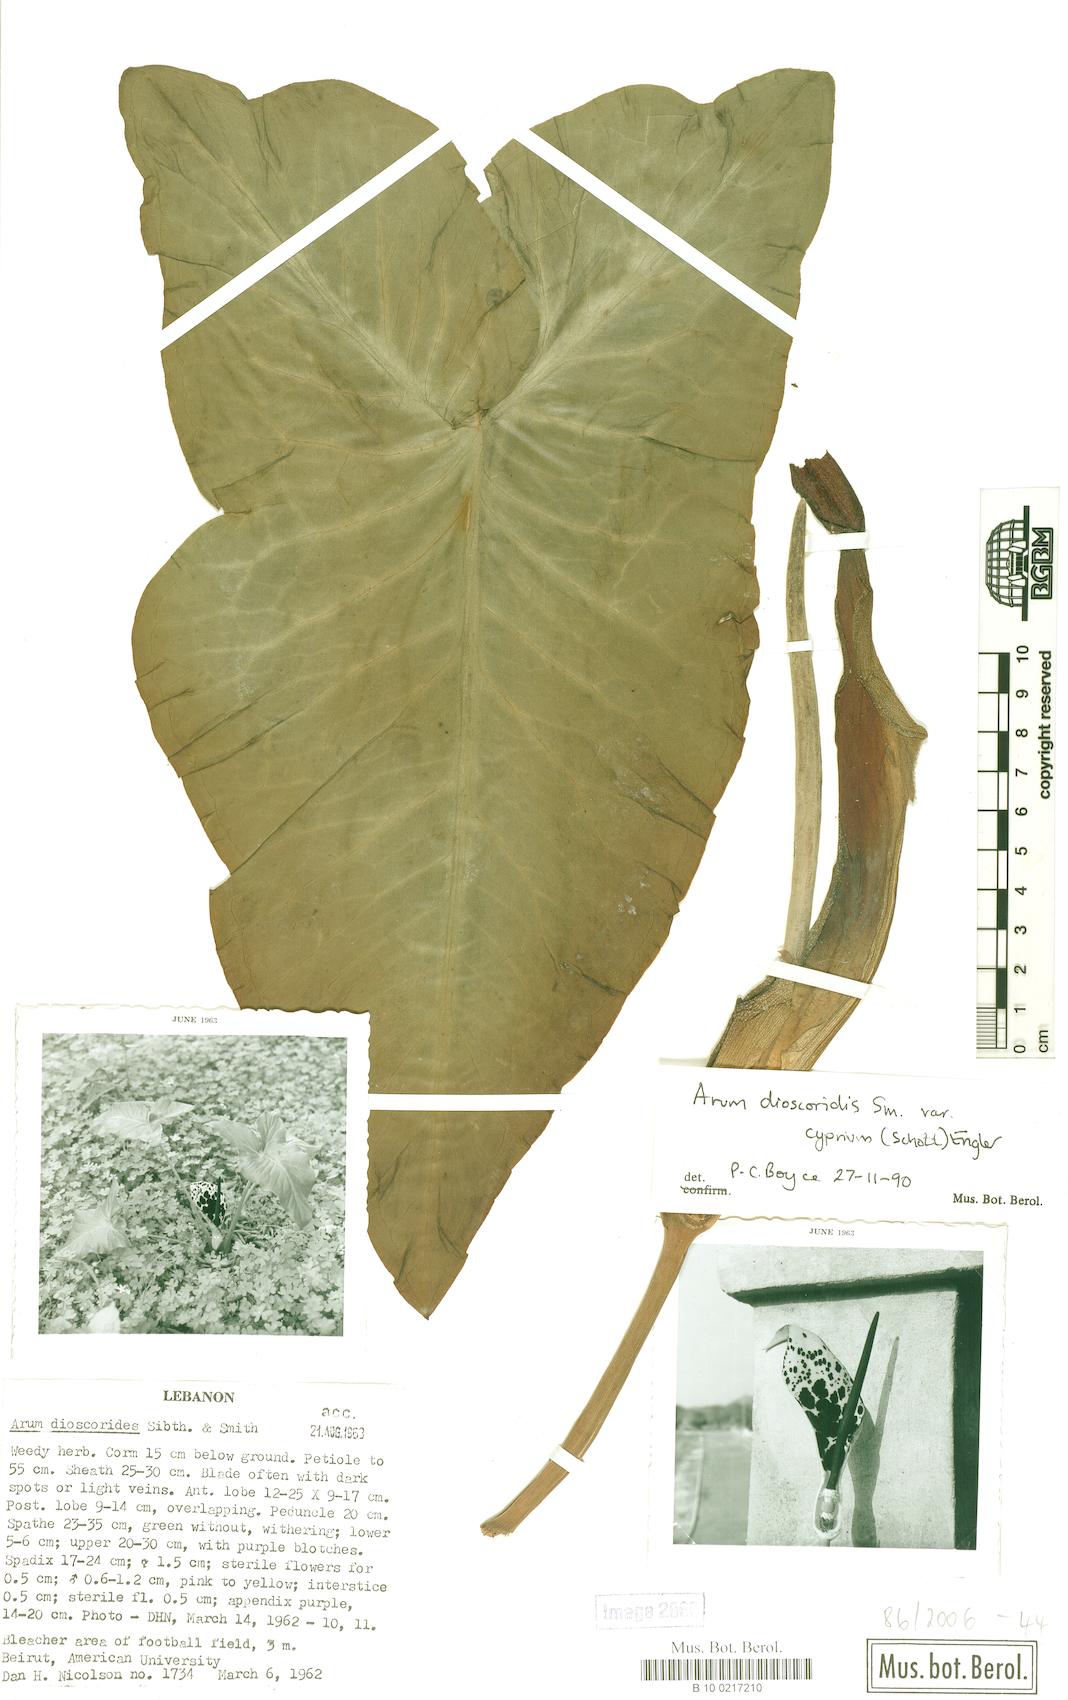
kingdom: Plantae
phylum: Tracheophyta
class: Liliopsida
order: Alismatales
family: Araceae
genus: Arum
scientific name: Arum dioscoridis
